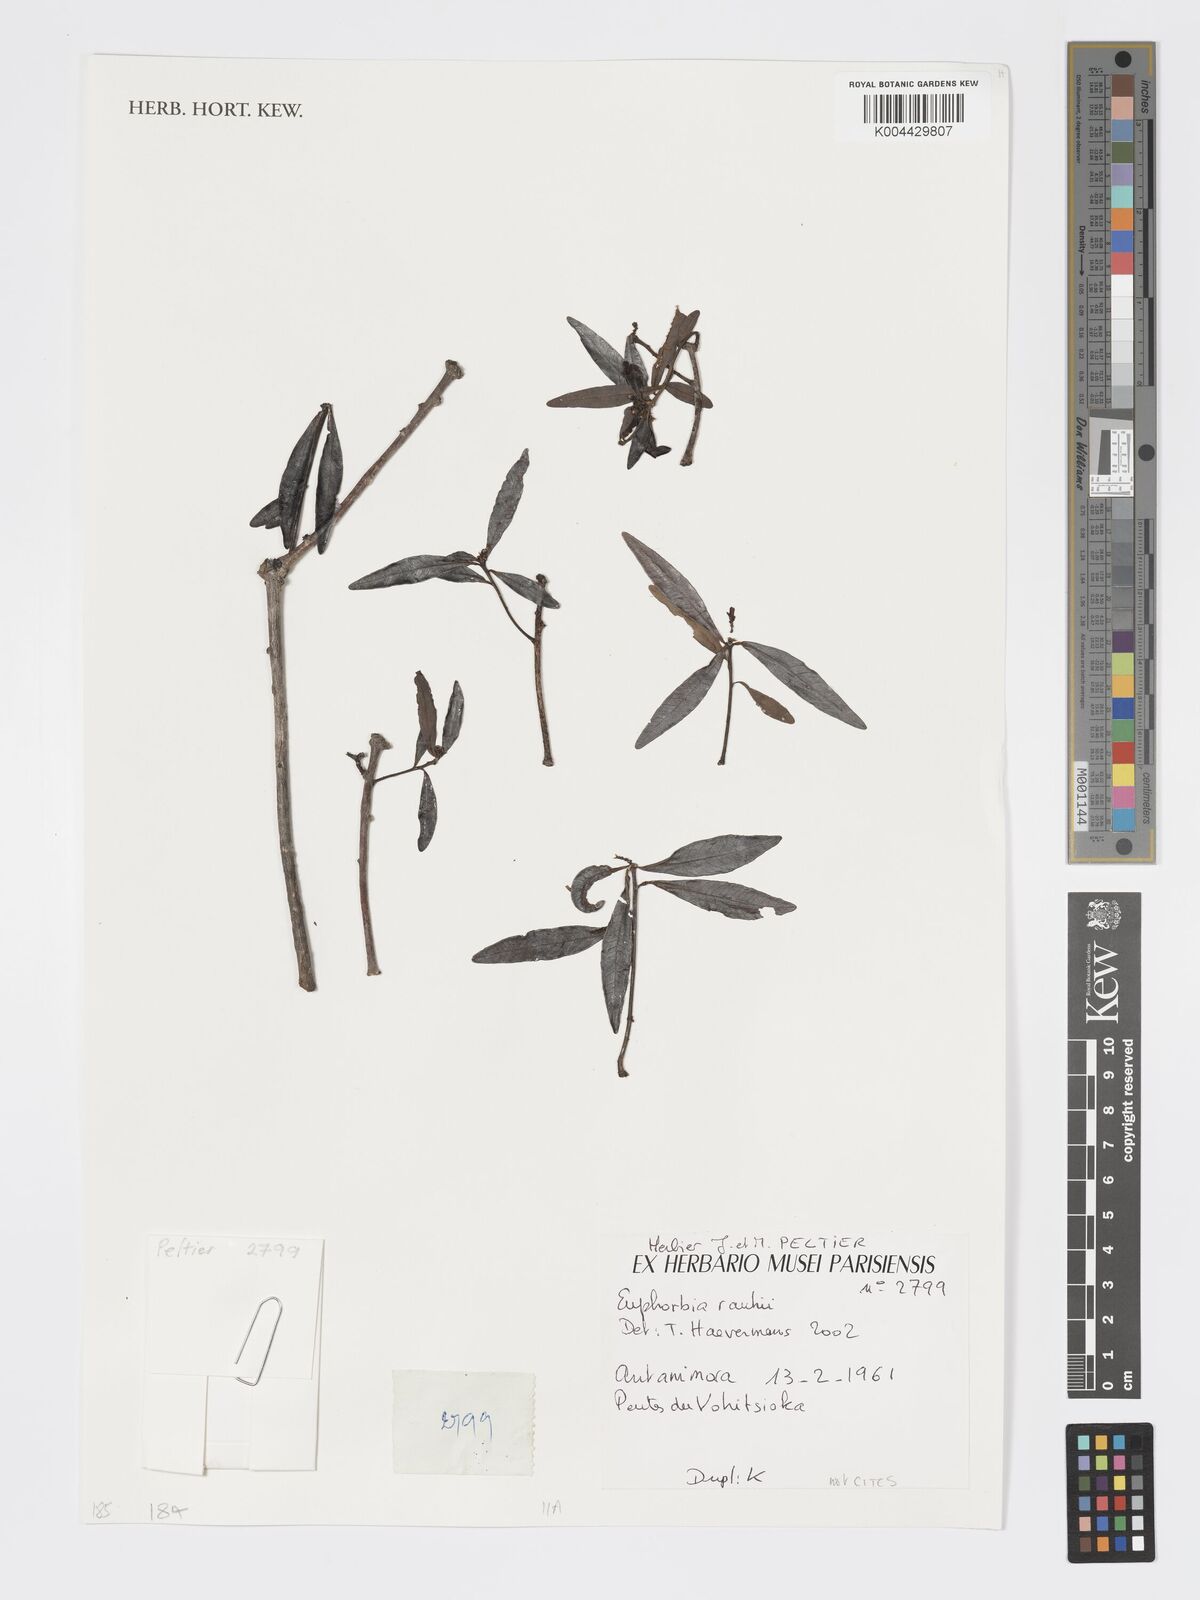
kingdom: Plantae
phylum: Tracheophyta
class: Magnoliopsida
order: Malpighiales
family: Euphorbiaceae
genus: Euphorbia
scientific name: Euphorbia rauhii
